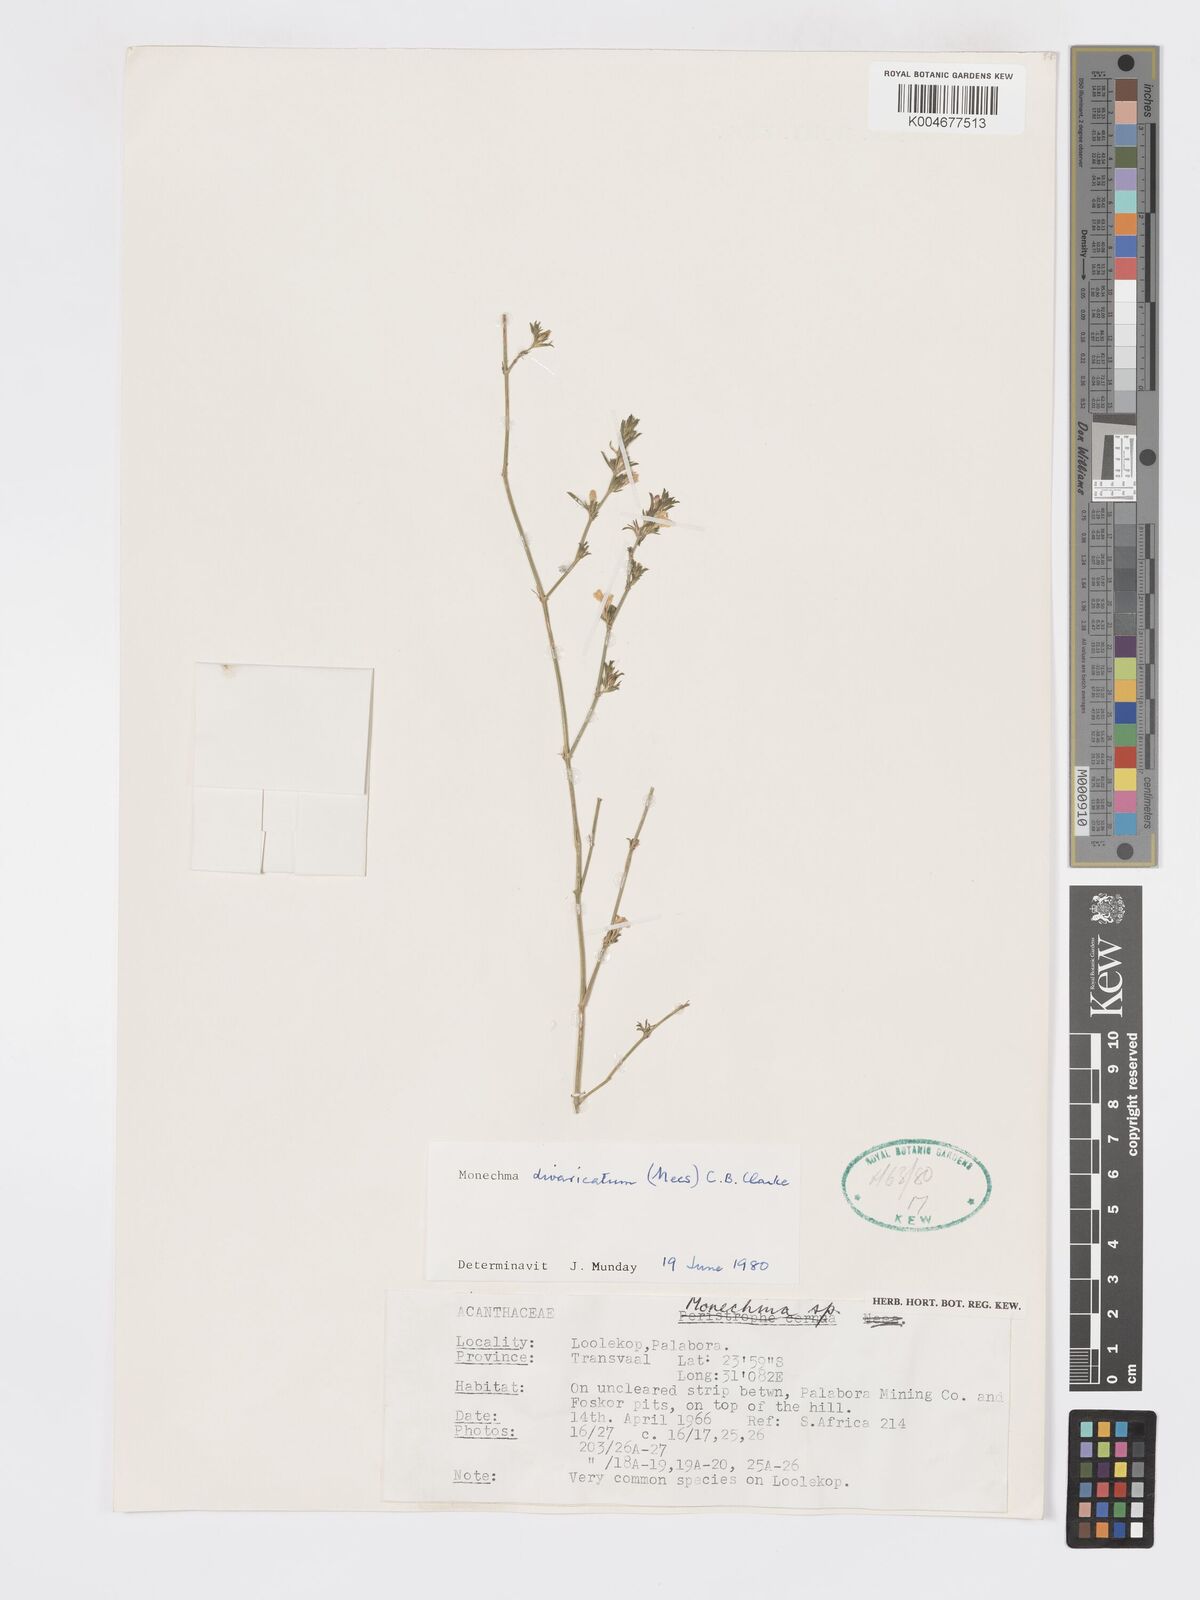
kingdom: Plantae
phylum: Tracheophyta
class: Magnoliopsida
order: Lamiales
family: Acanthaceae
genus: Pogonospermum
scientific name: Pogonospermum
